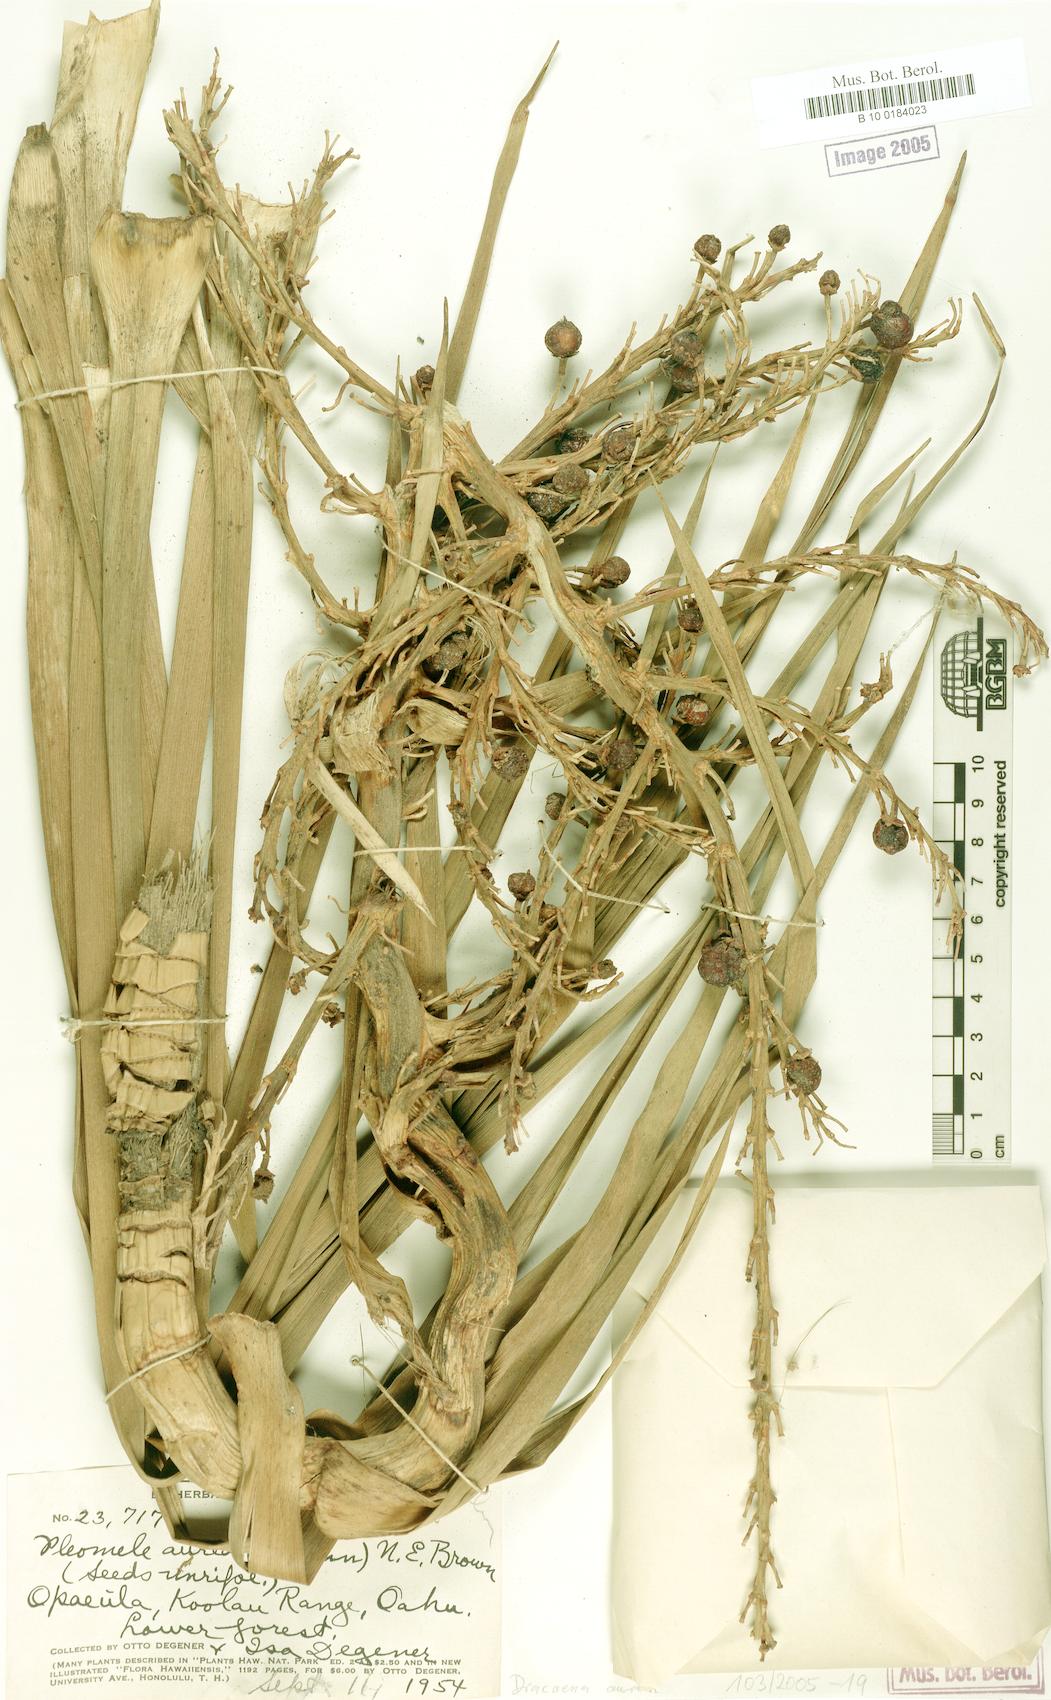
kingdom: Plantae
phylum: Tracheophyta
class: Liliopsida
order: Asparagales
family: Asparagaceae
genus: Dracaena
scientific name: Dracaena aurea
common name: Golden dracaena
